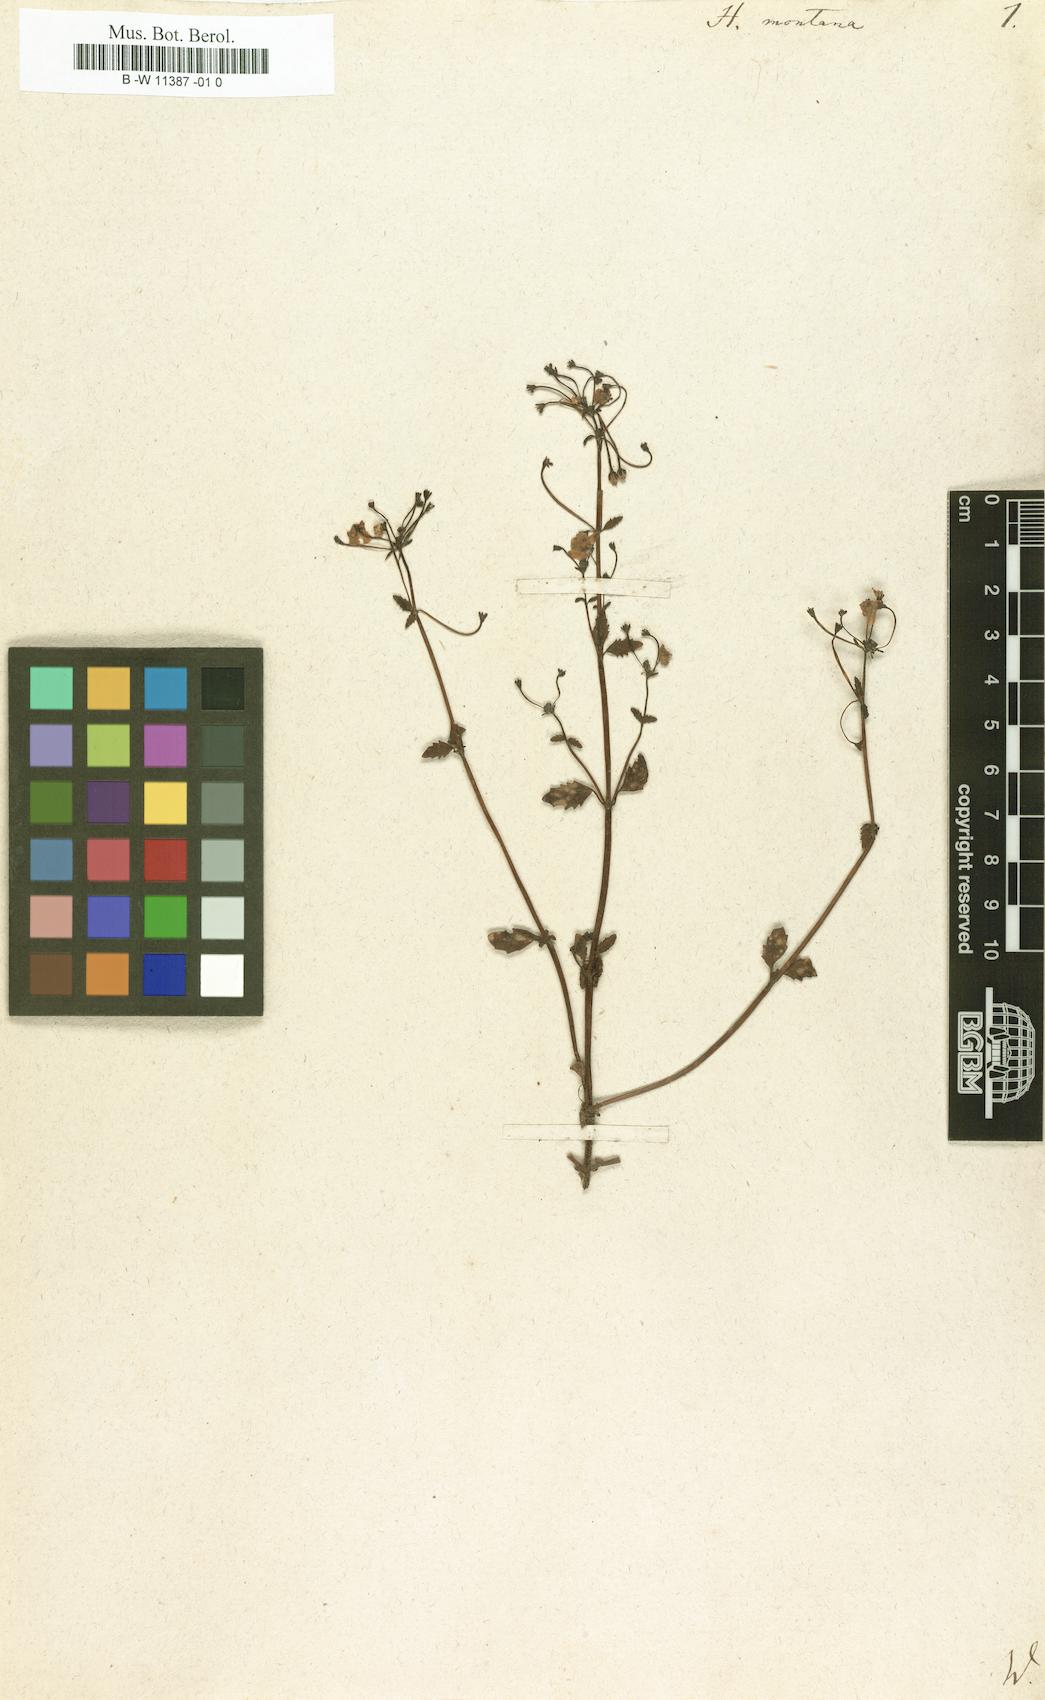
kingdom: Plantae
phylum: Tracheophyta
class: Magnoliopsida
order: Lamiales
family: Scrophulariaceae
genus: Hemimeris
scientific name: Hemimeris racemosa
